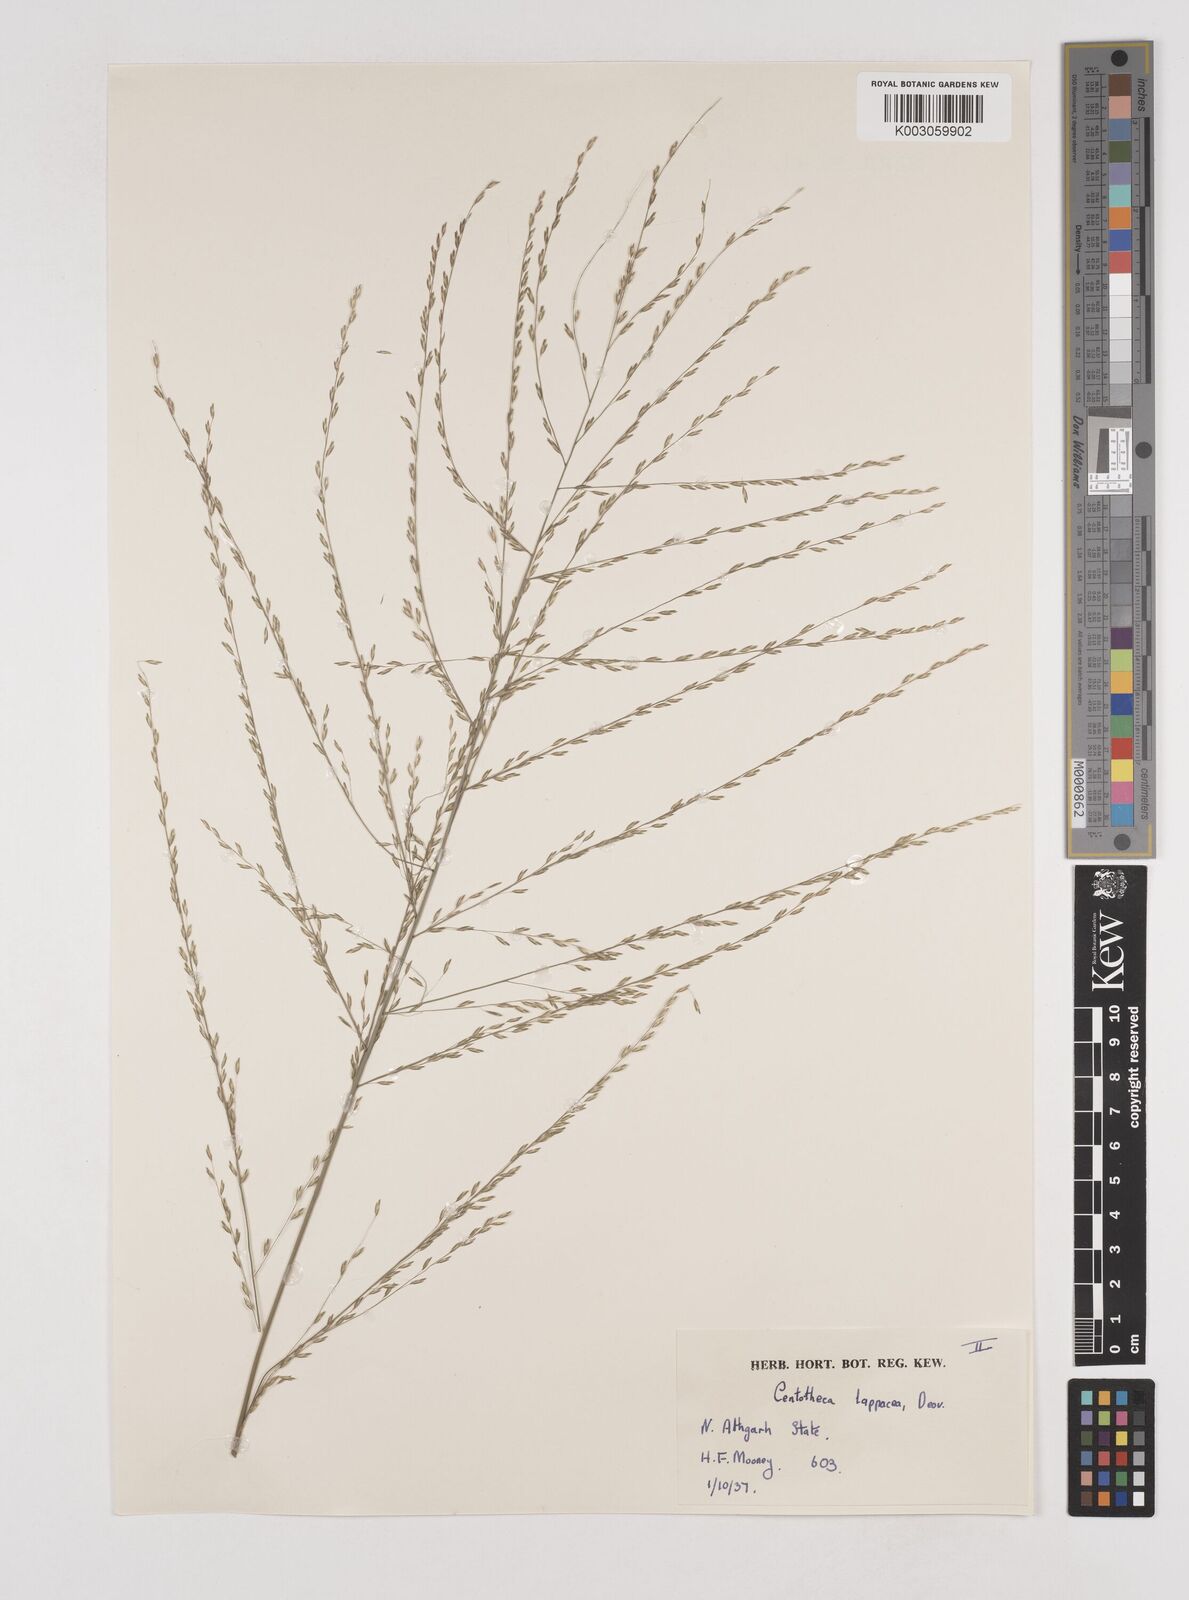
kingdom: Plantae
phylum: Tracheophyta
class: Liliopsida
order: Poales
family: Poaceae
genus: Centotheca
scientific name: Centotheca lappacea
